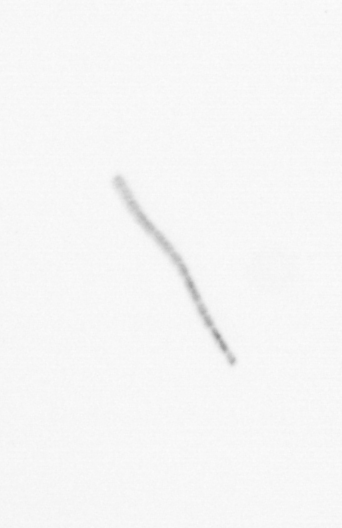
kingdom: Chromista
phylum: Ochrophyta
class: Bacillariophyceae
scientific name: Bacillariophyceae
